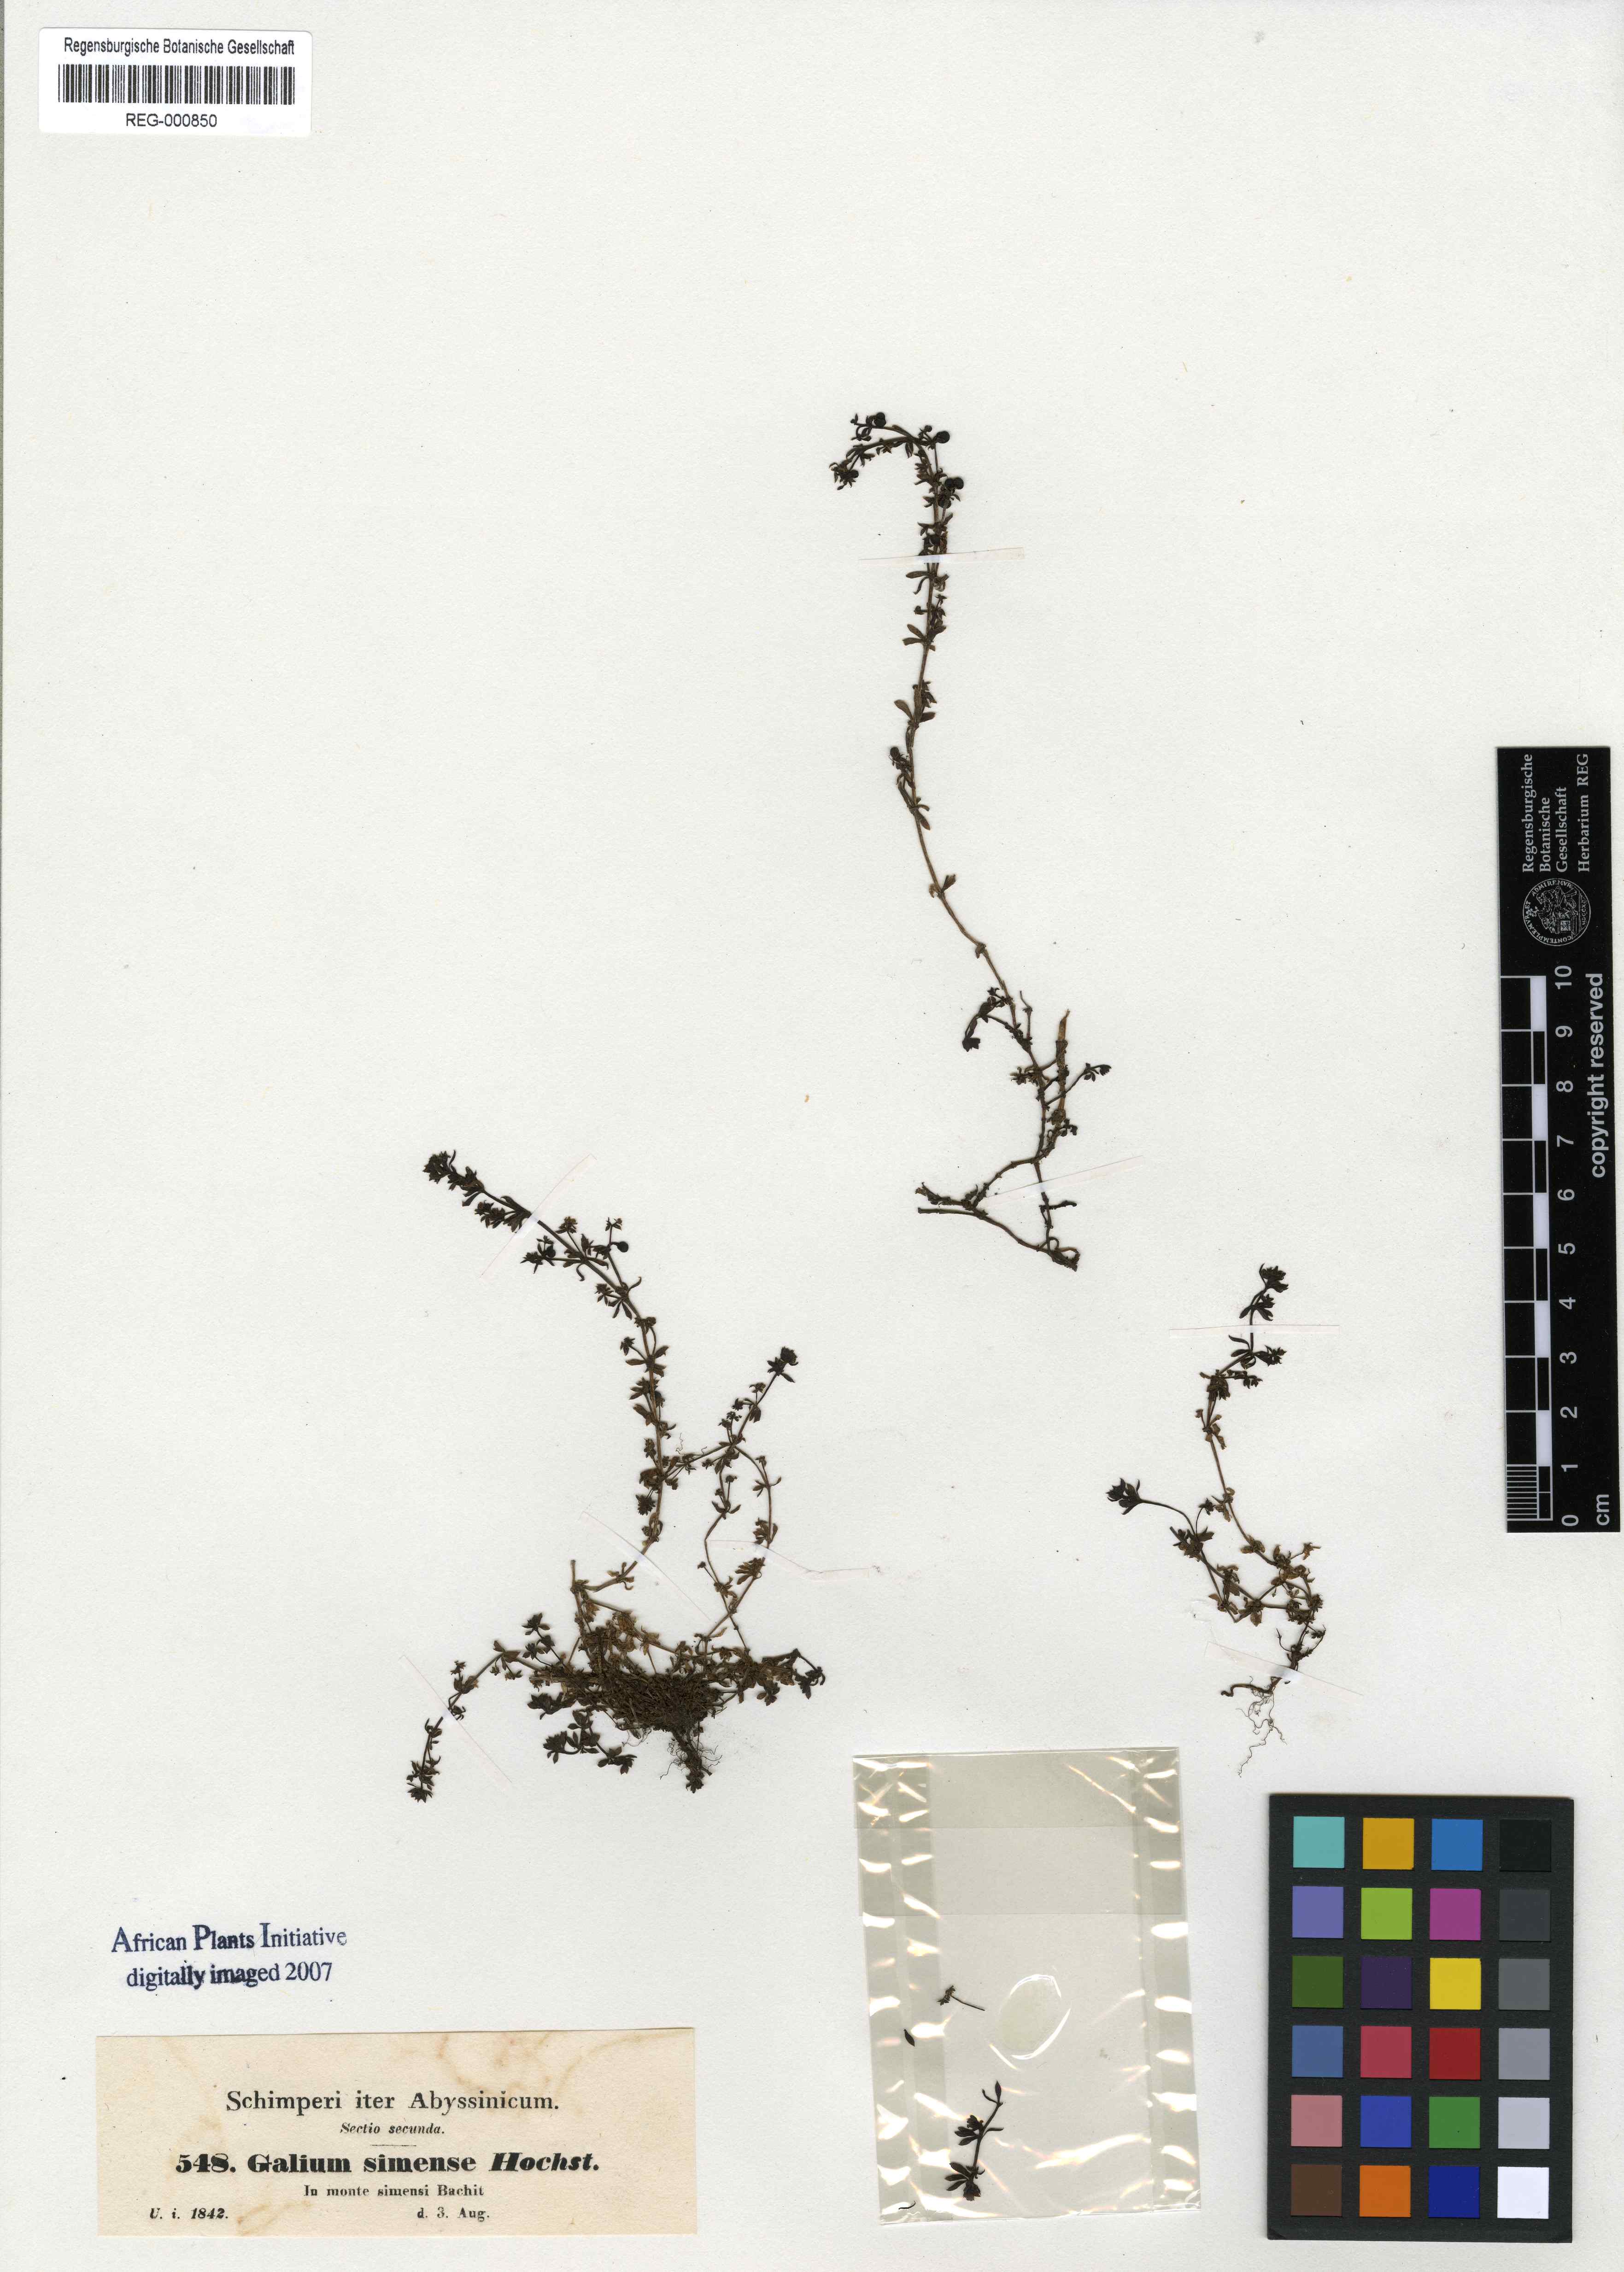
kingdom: Plantae
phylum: Tracheophyta
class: Magnoliopsida
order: Gentianales
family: Rubiaceae
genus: Galium
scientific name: Galium acrophyum
